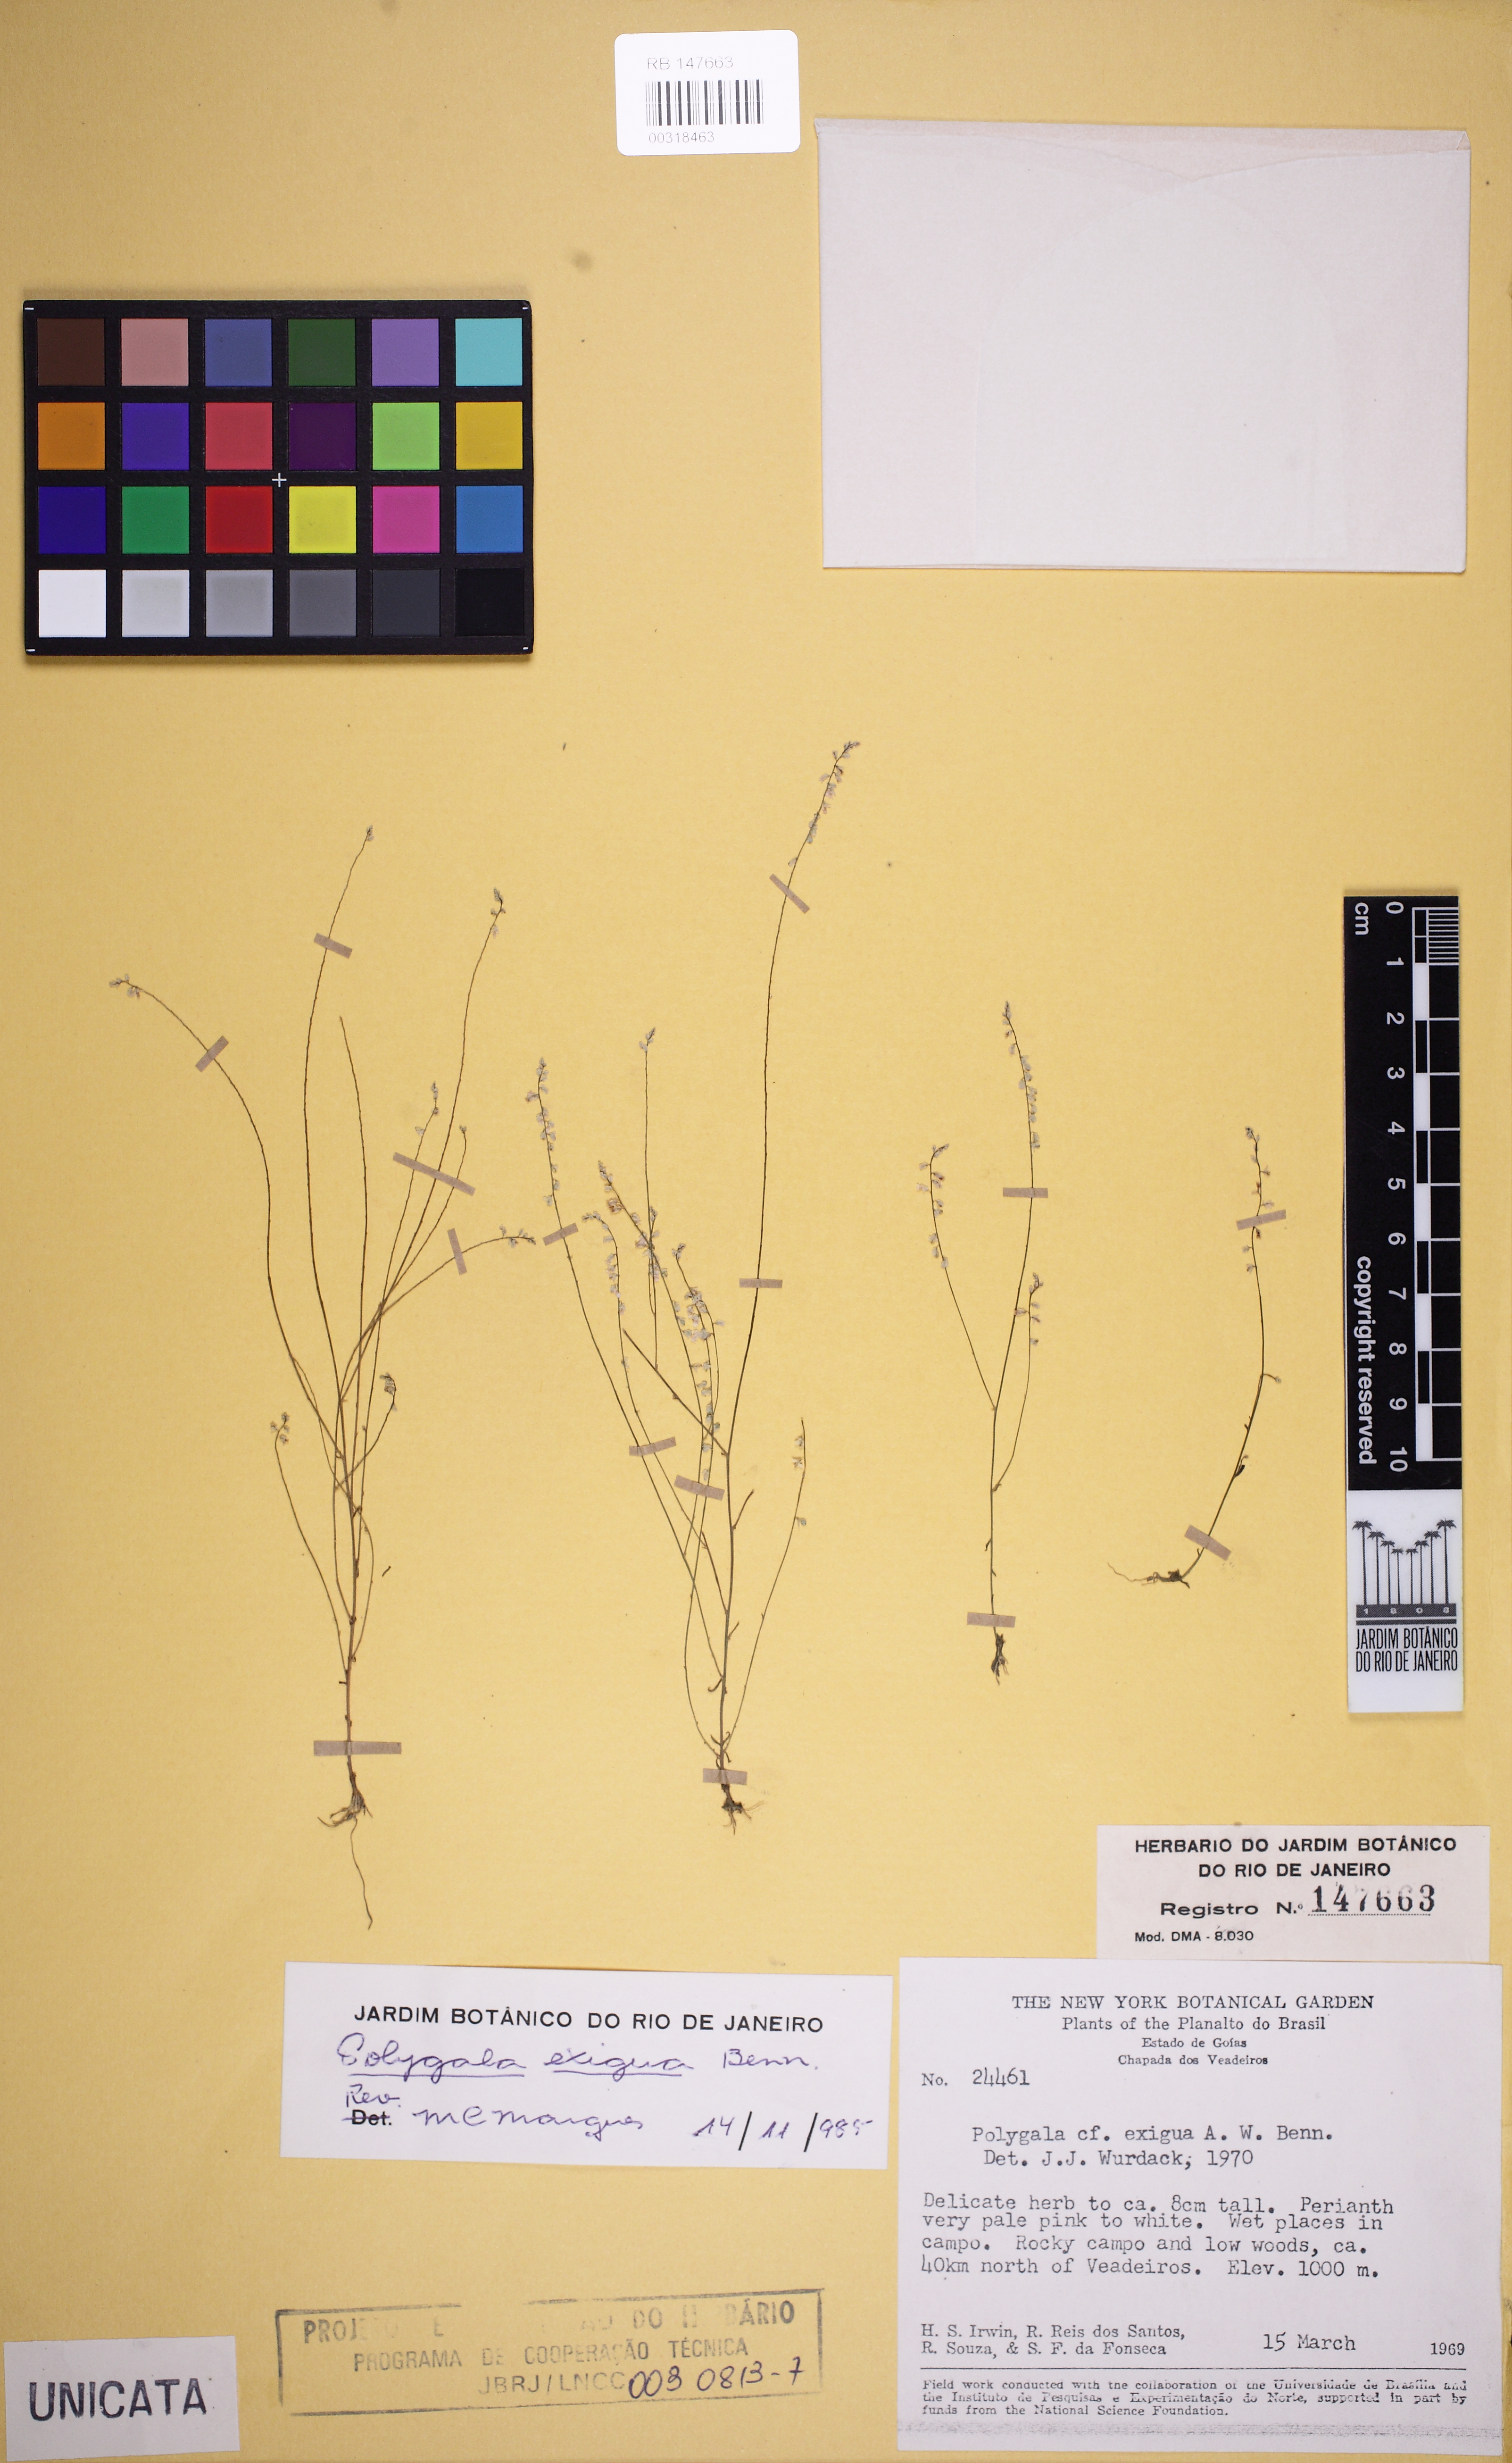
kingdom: Plantae
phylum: Tracheophyta
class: Magnoliopsida
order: Fabales
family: Polygalaceae
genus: Polygala
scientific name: Polygala
